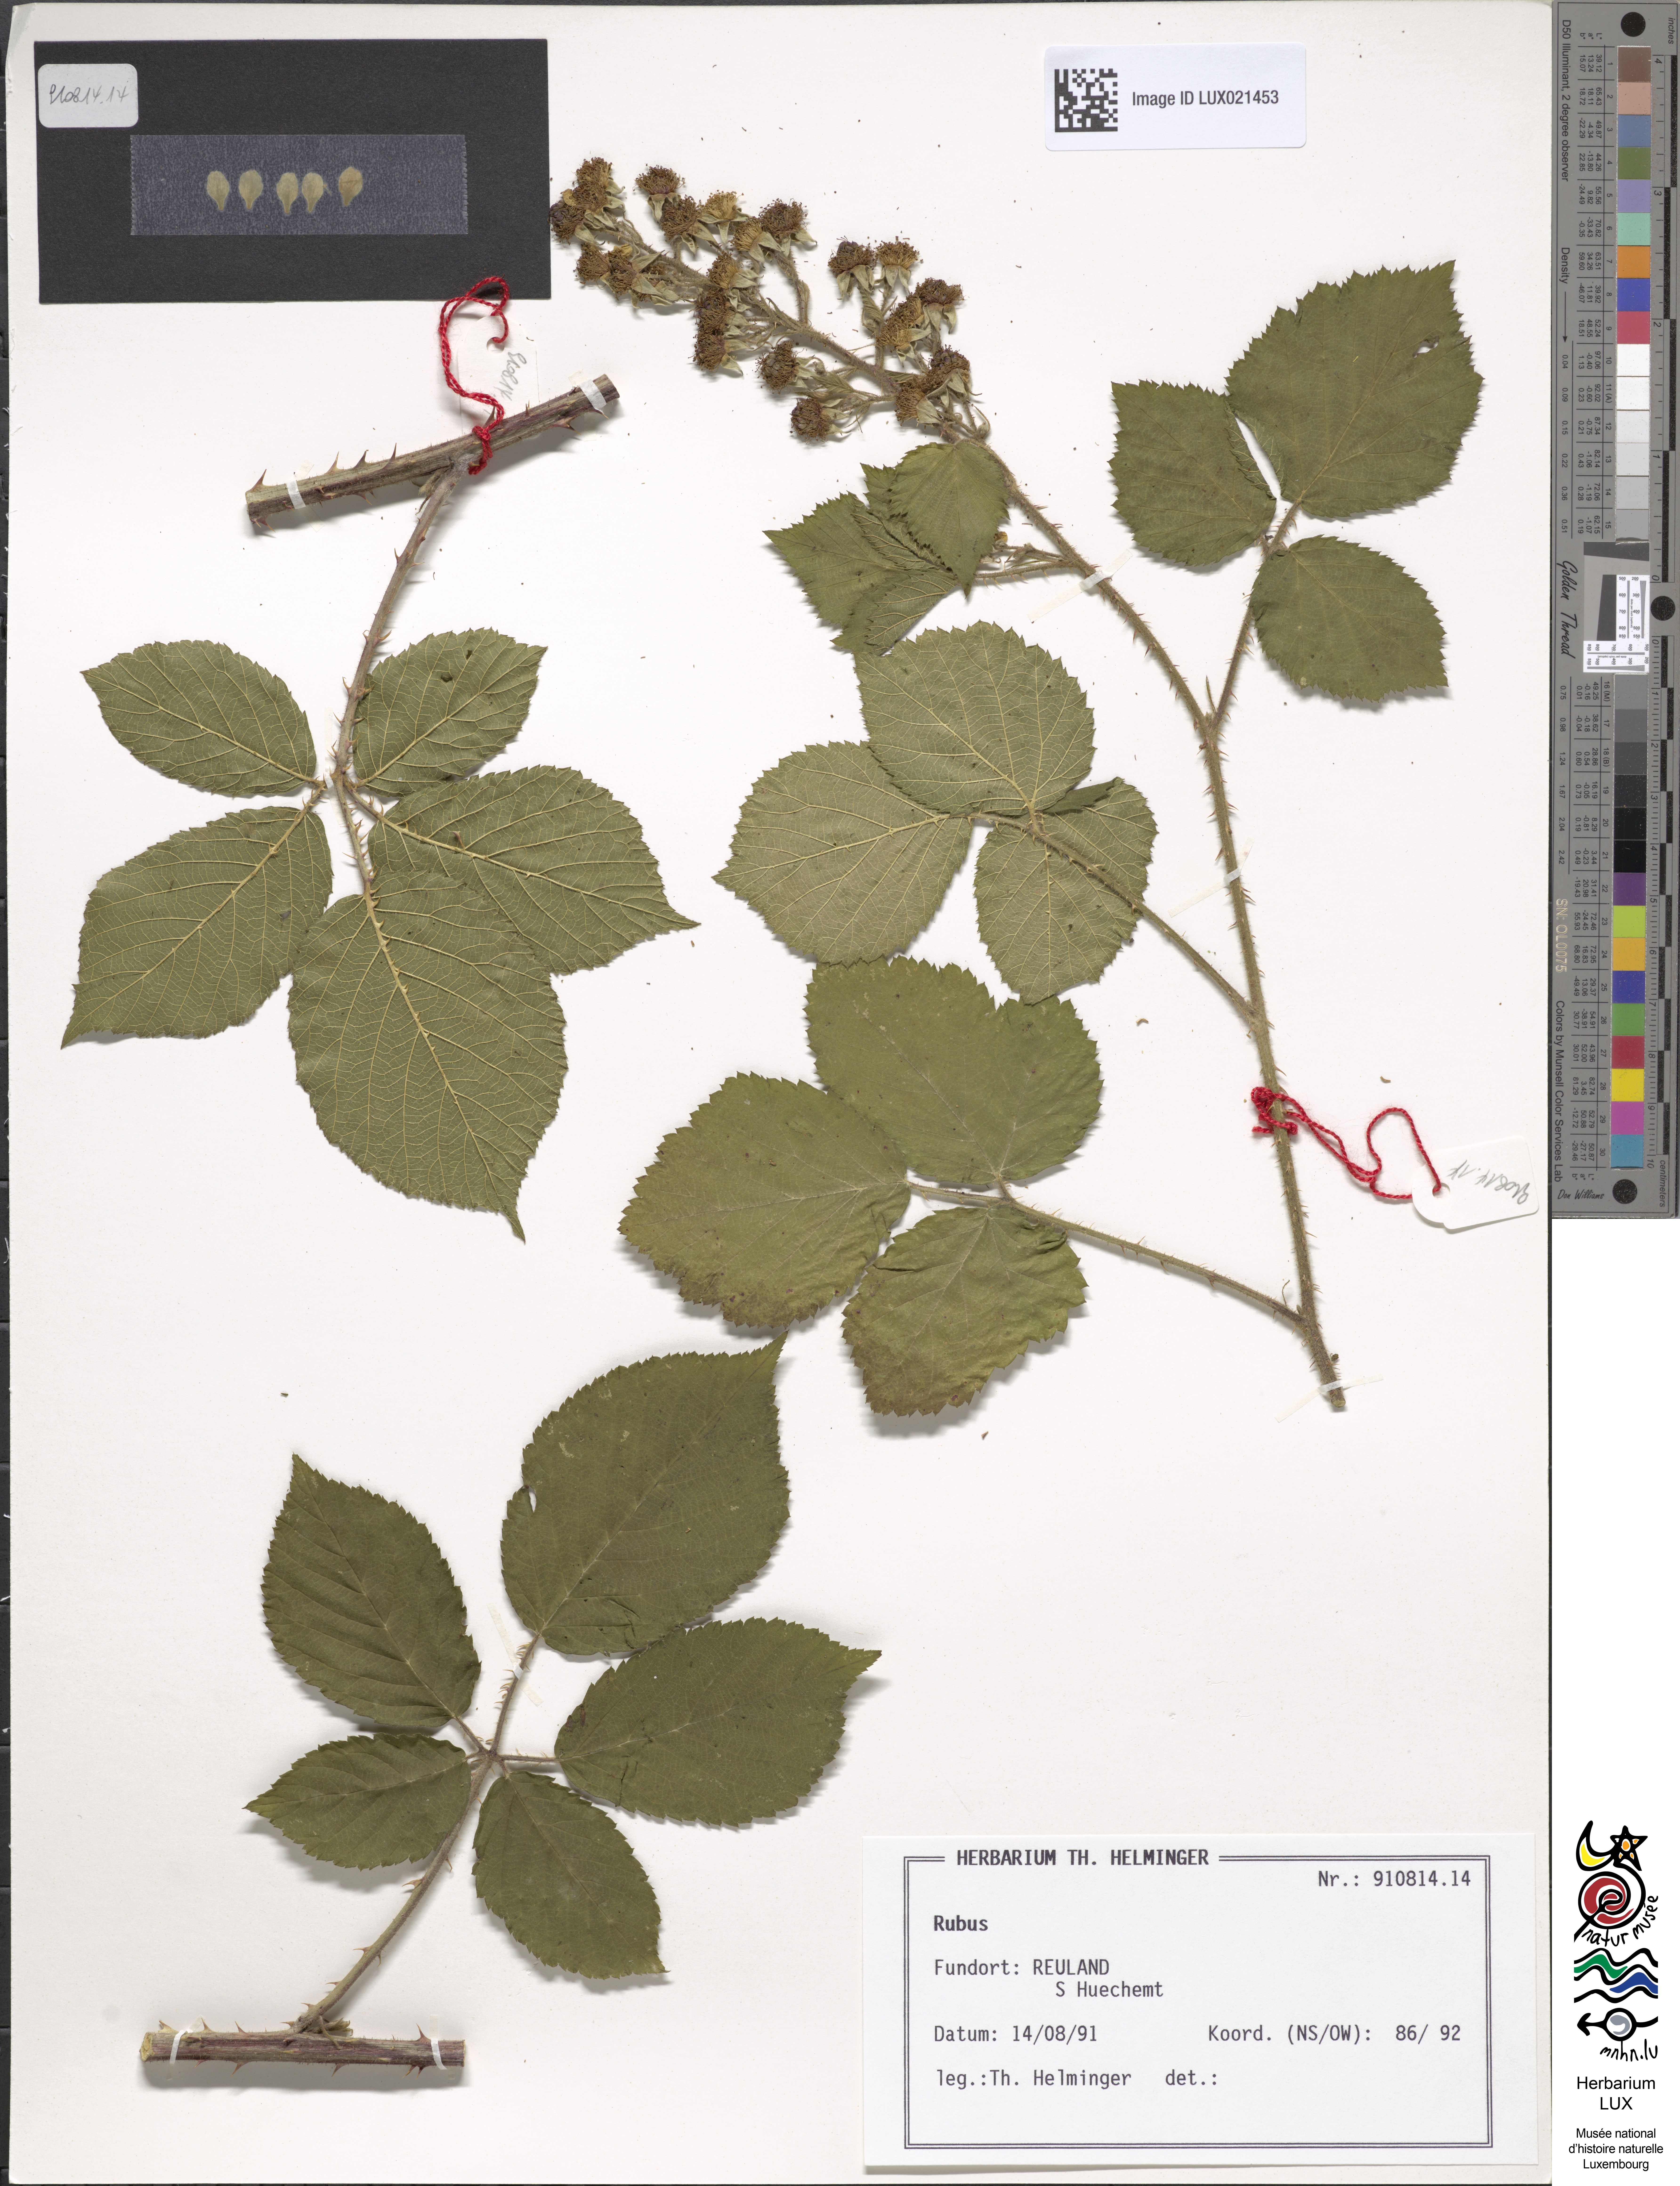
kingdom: Plantae
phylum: Tracheophyta
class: Magnoliopsida
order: Rosales
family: Rosaceae
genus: Rubus
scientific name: Rubus
